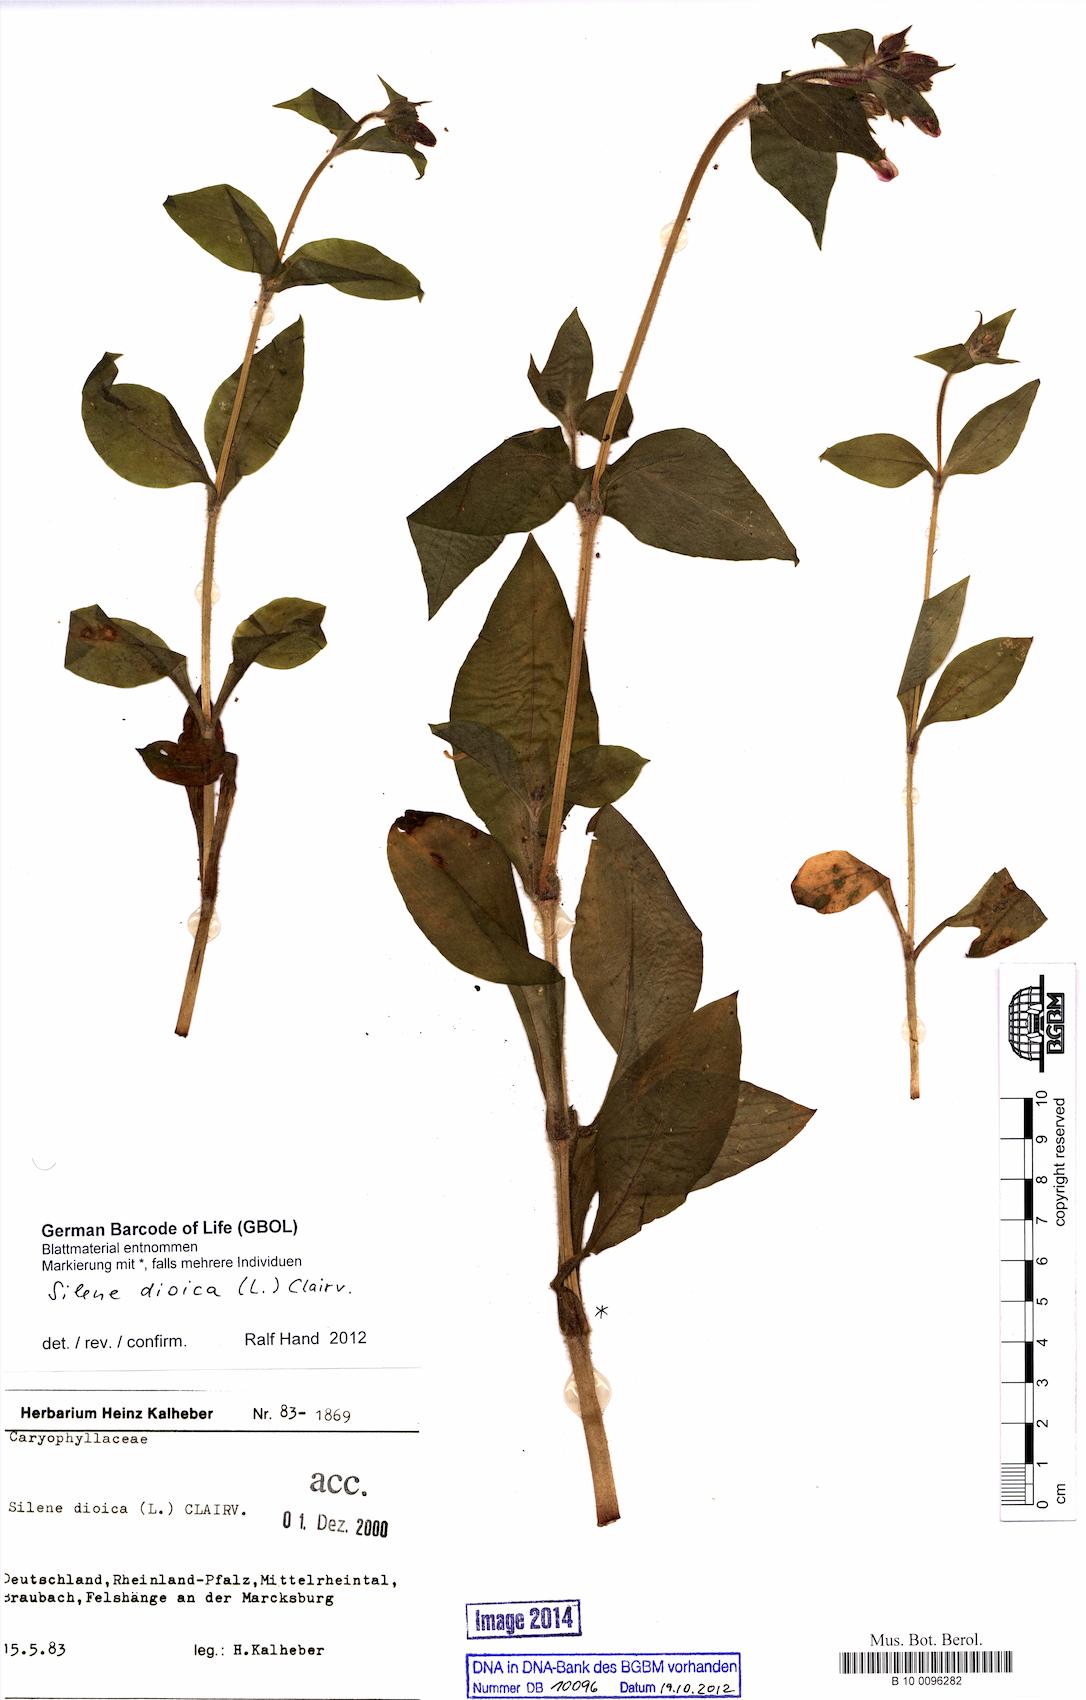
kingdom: Plantae
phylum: Tracheophyta
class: Magnoliopsida
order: Caryophyllales
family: Caryophyllaceae
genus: Silene
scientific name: Silene dioica
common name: Red campion
